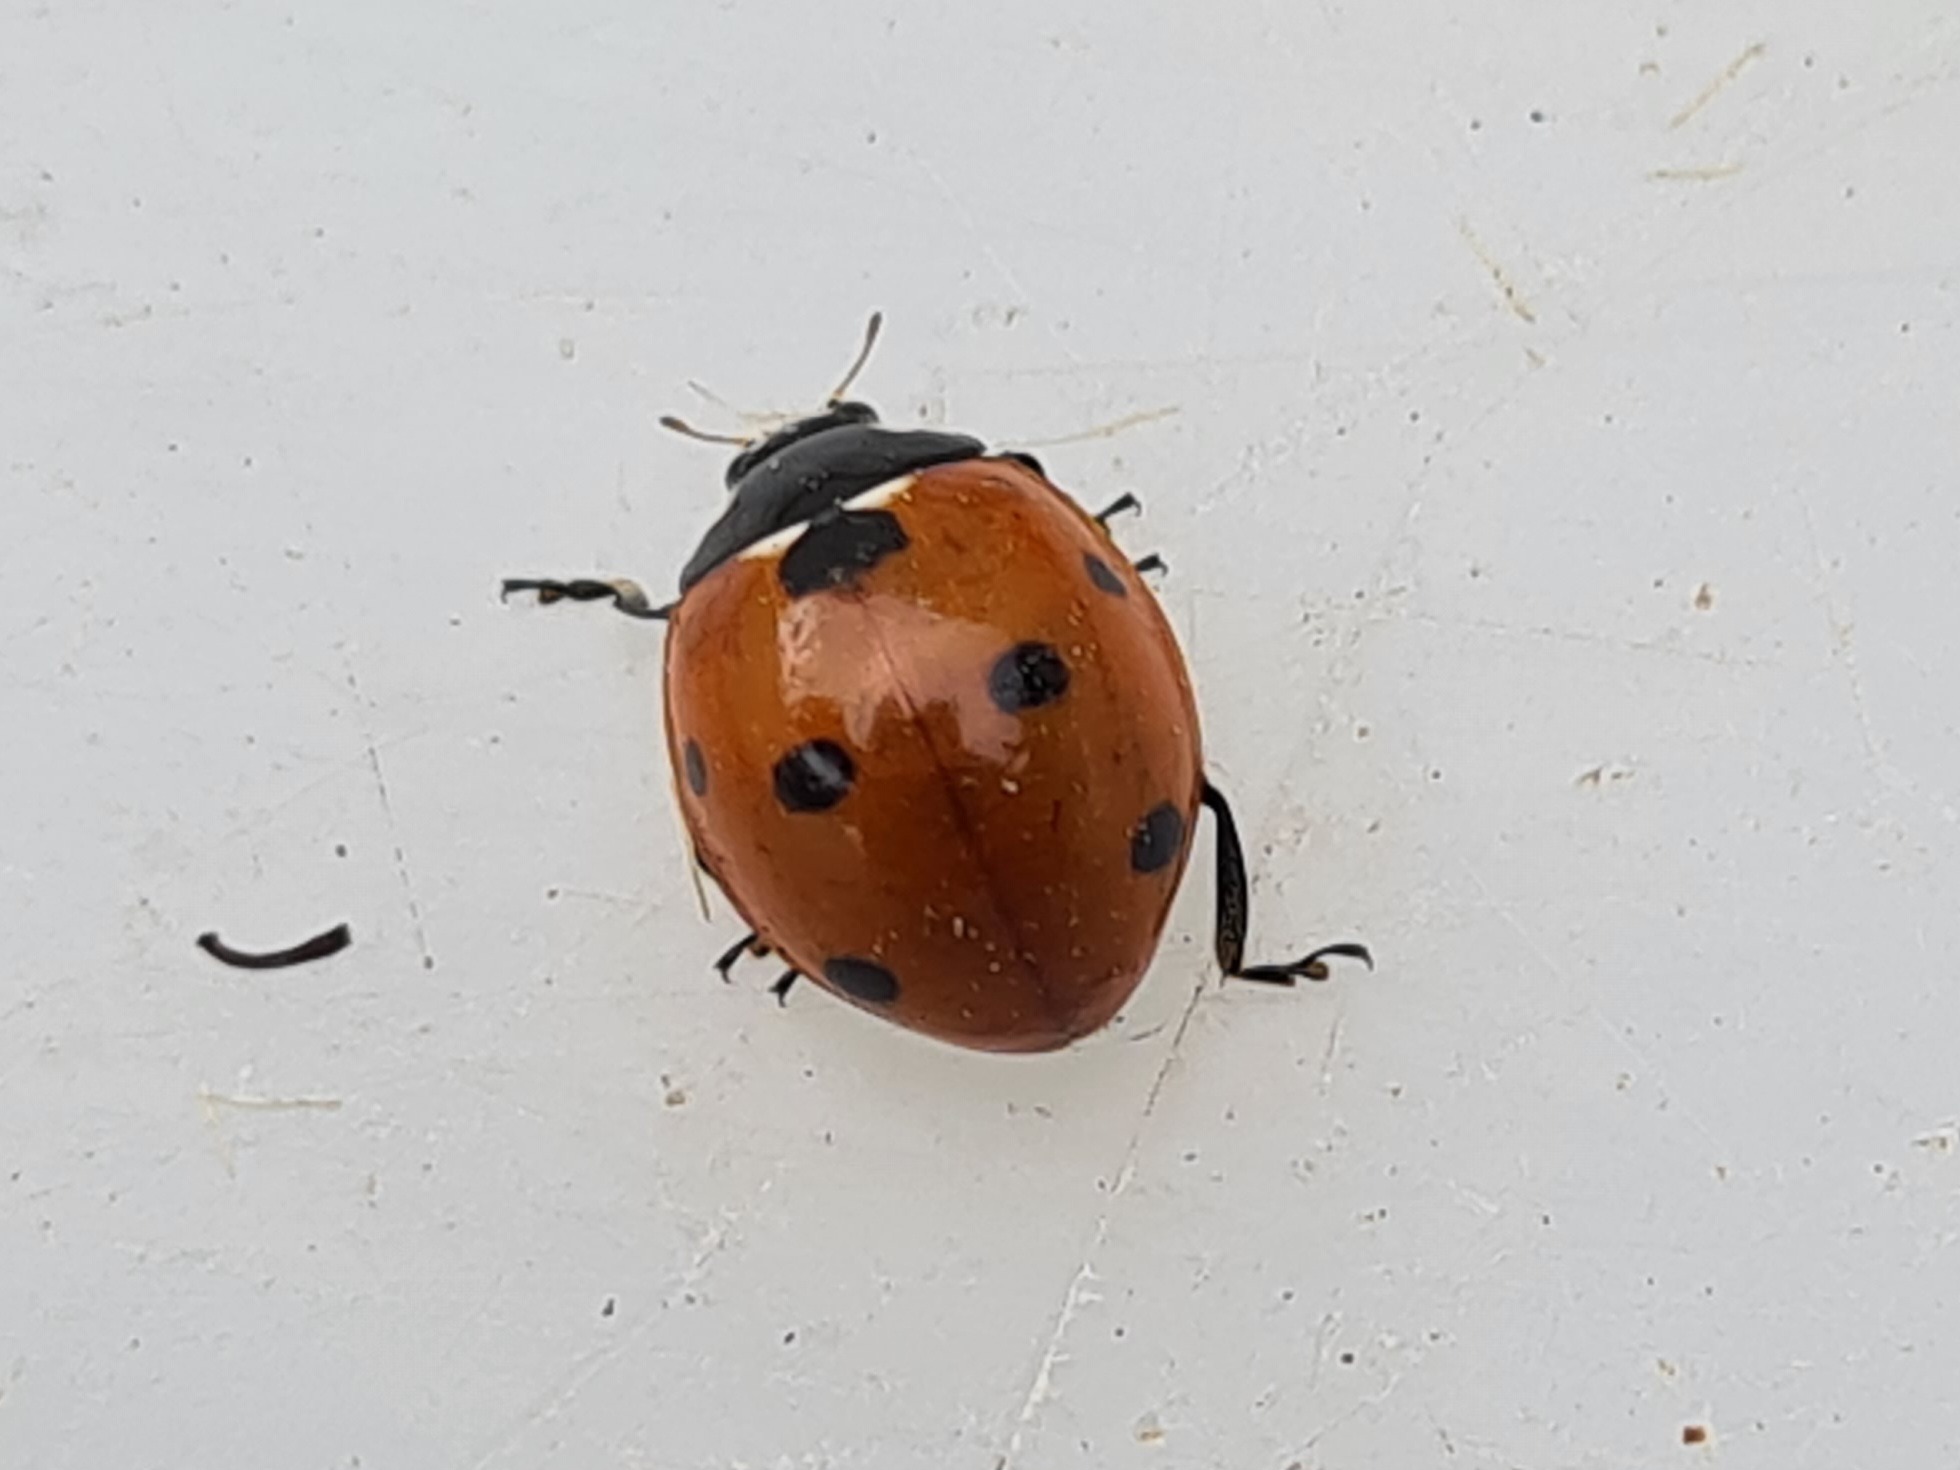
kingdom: Animalia
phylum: Arthropoda
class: Insecta
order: Coleoptera
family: Coccinellidae
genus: Coccinella
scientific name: Coccinella septempunctata
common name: Syvplettet mariehøne
